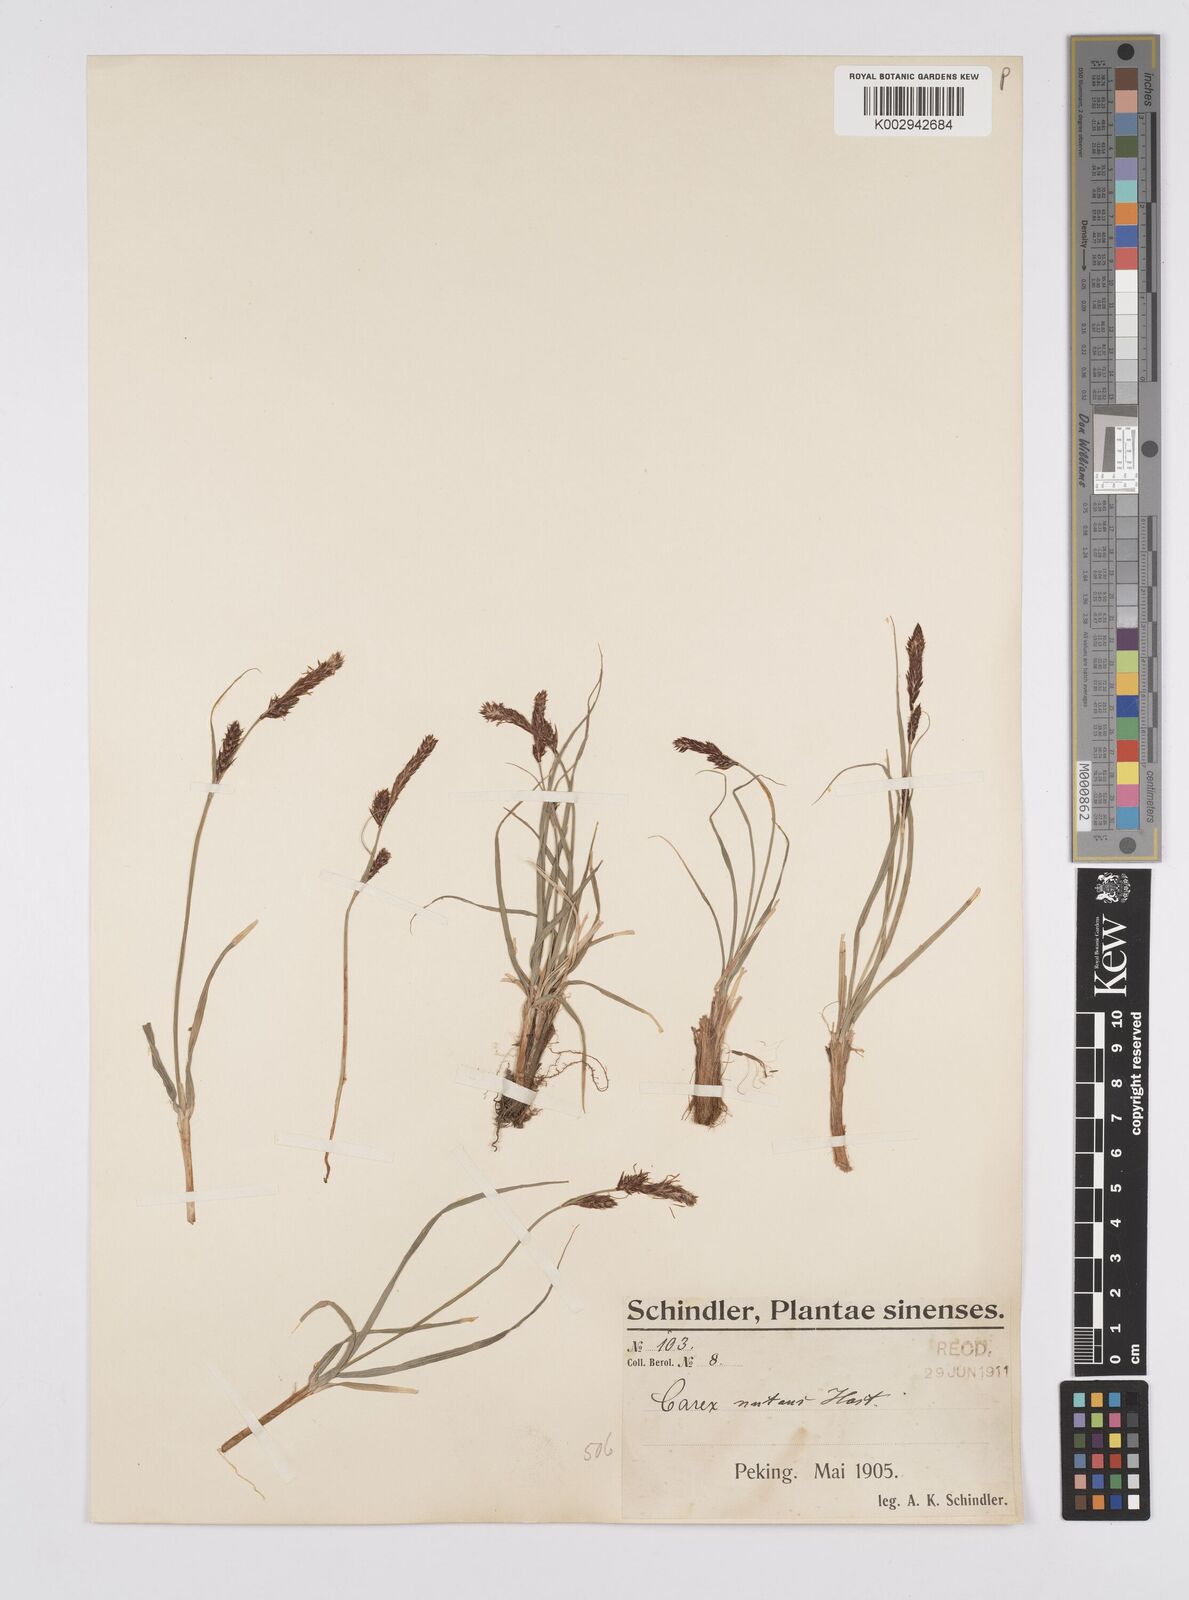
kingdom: Plantae
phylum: Tracheophyta
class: Liliopsida
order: Poales
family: Cyperaceae
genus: Carex
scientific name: Carex melanostachya
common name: Black-spiked sedge
